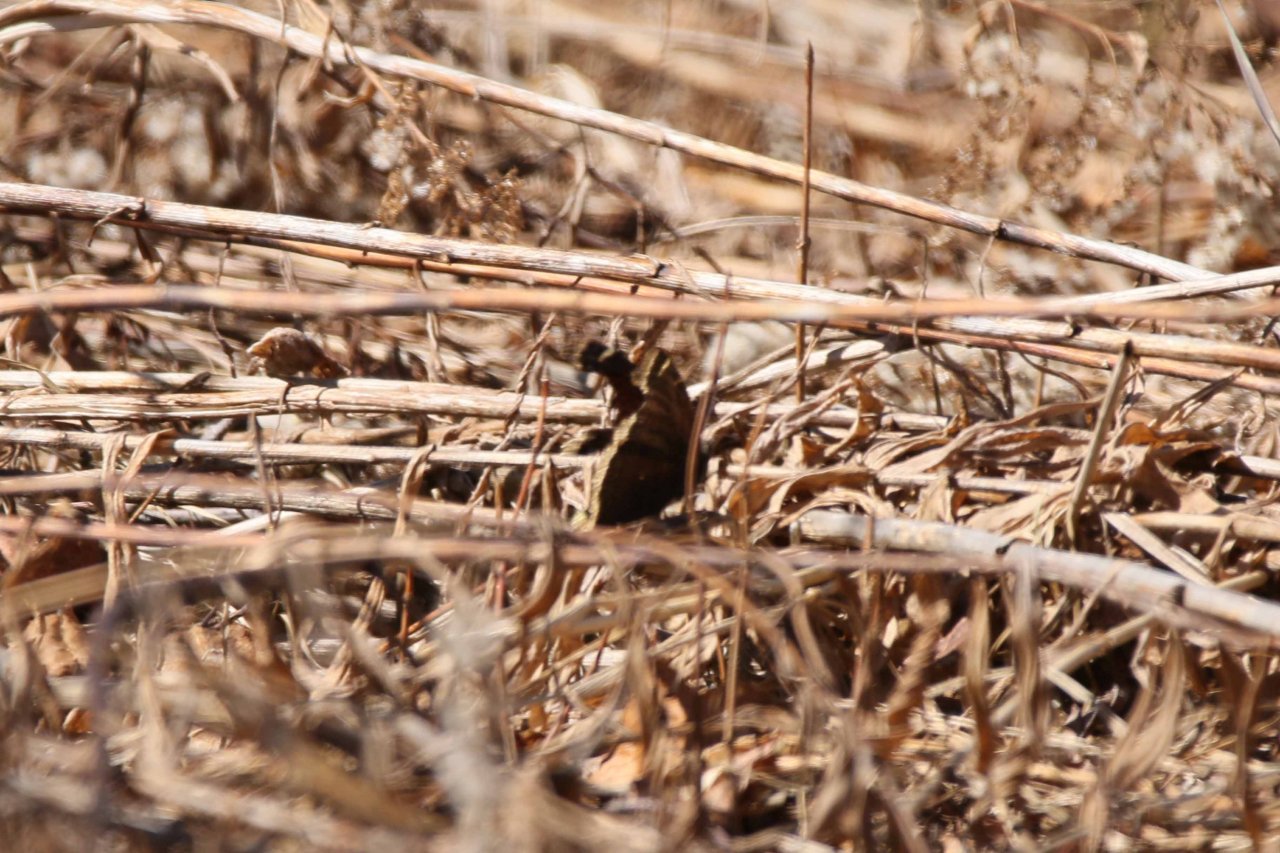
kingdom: Animalia
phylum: Arthropoda
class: Insecta
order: Lepidoptera
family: Nymphalidae
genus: Nymphalis
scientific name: Nymphalis antiopa
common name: Mourning Cloak
